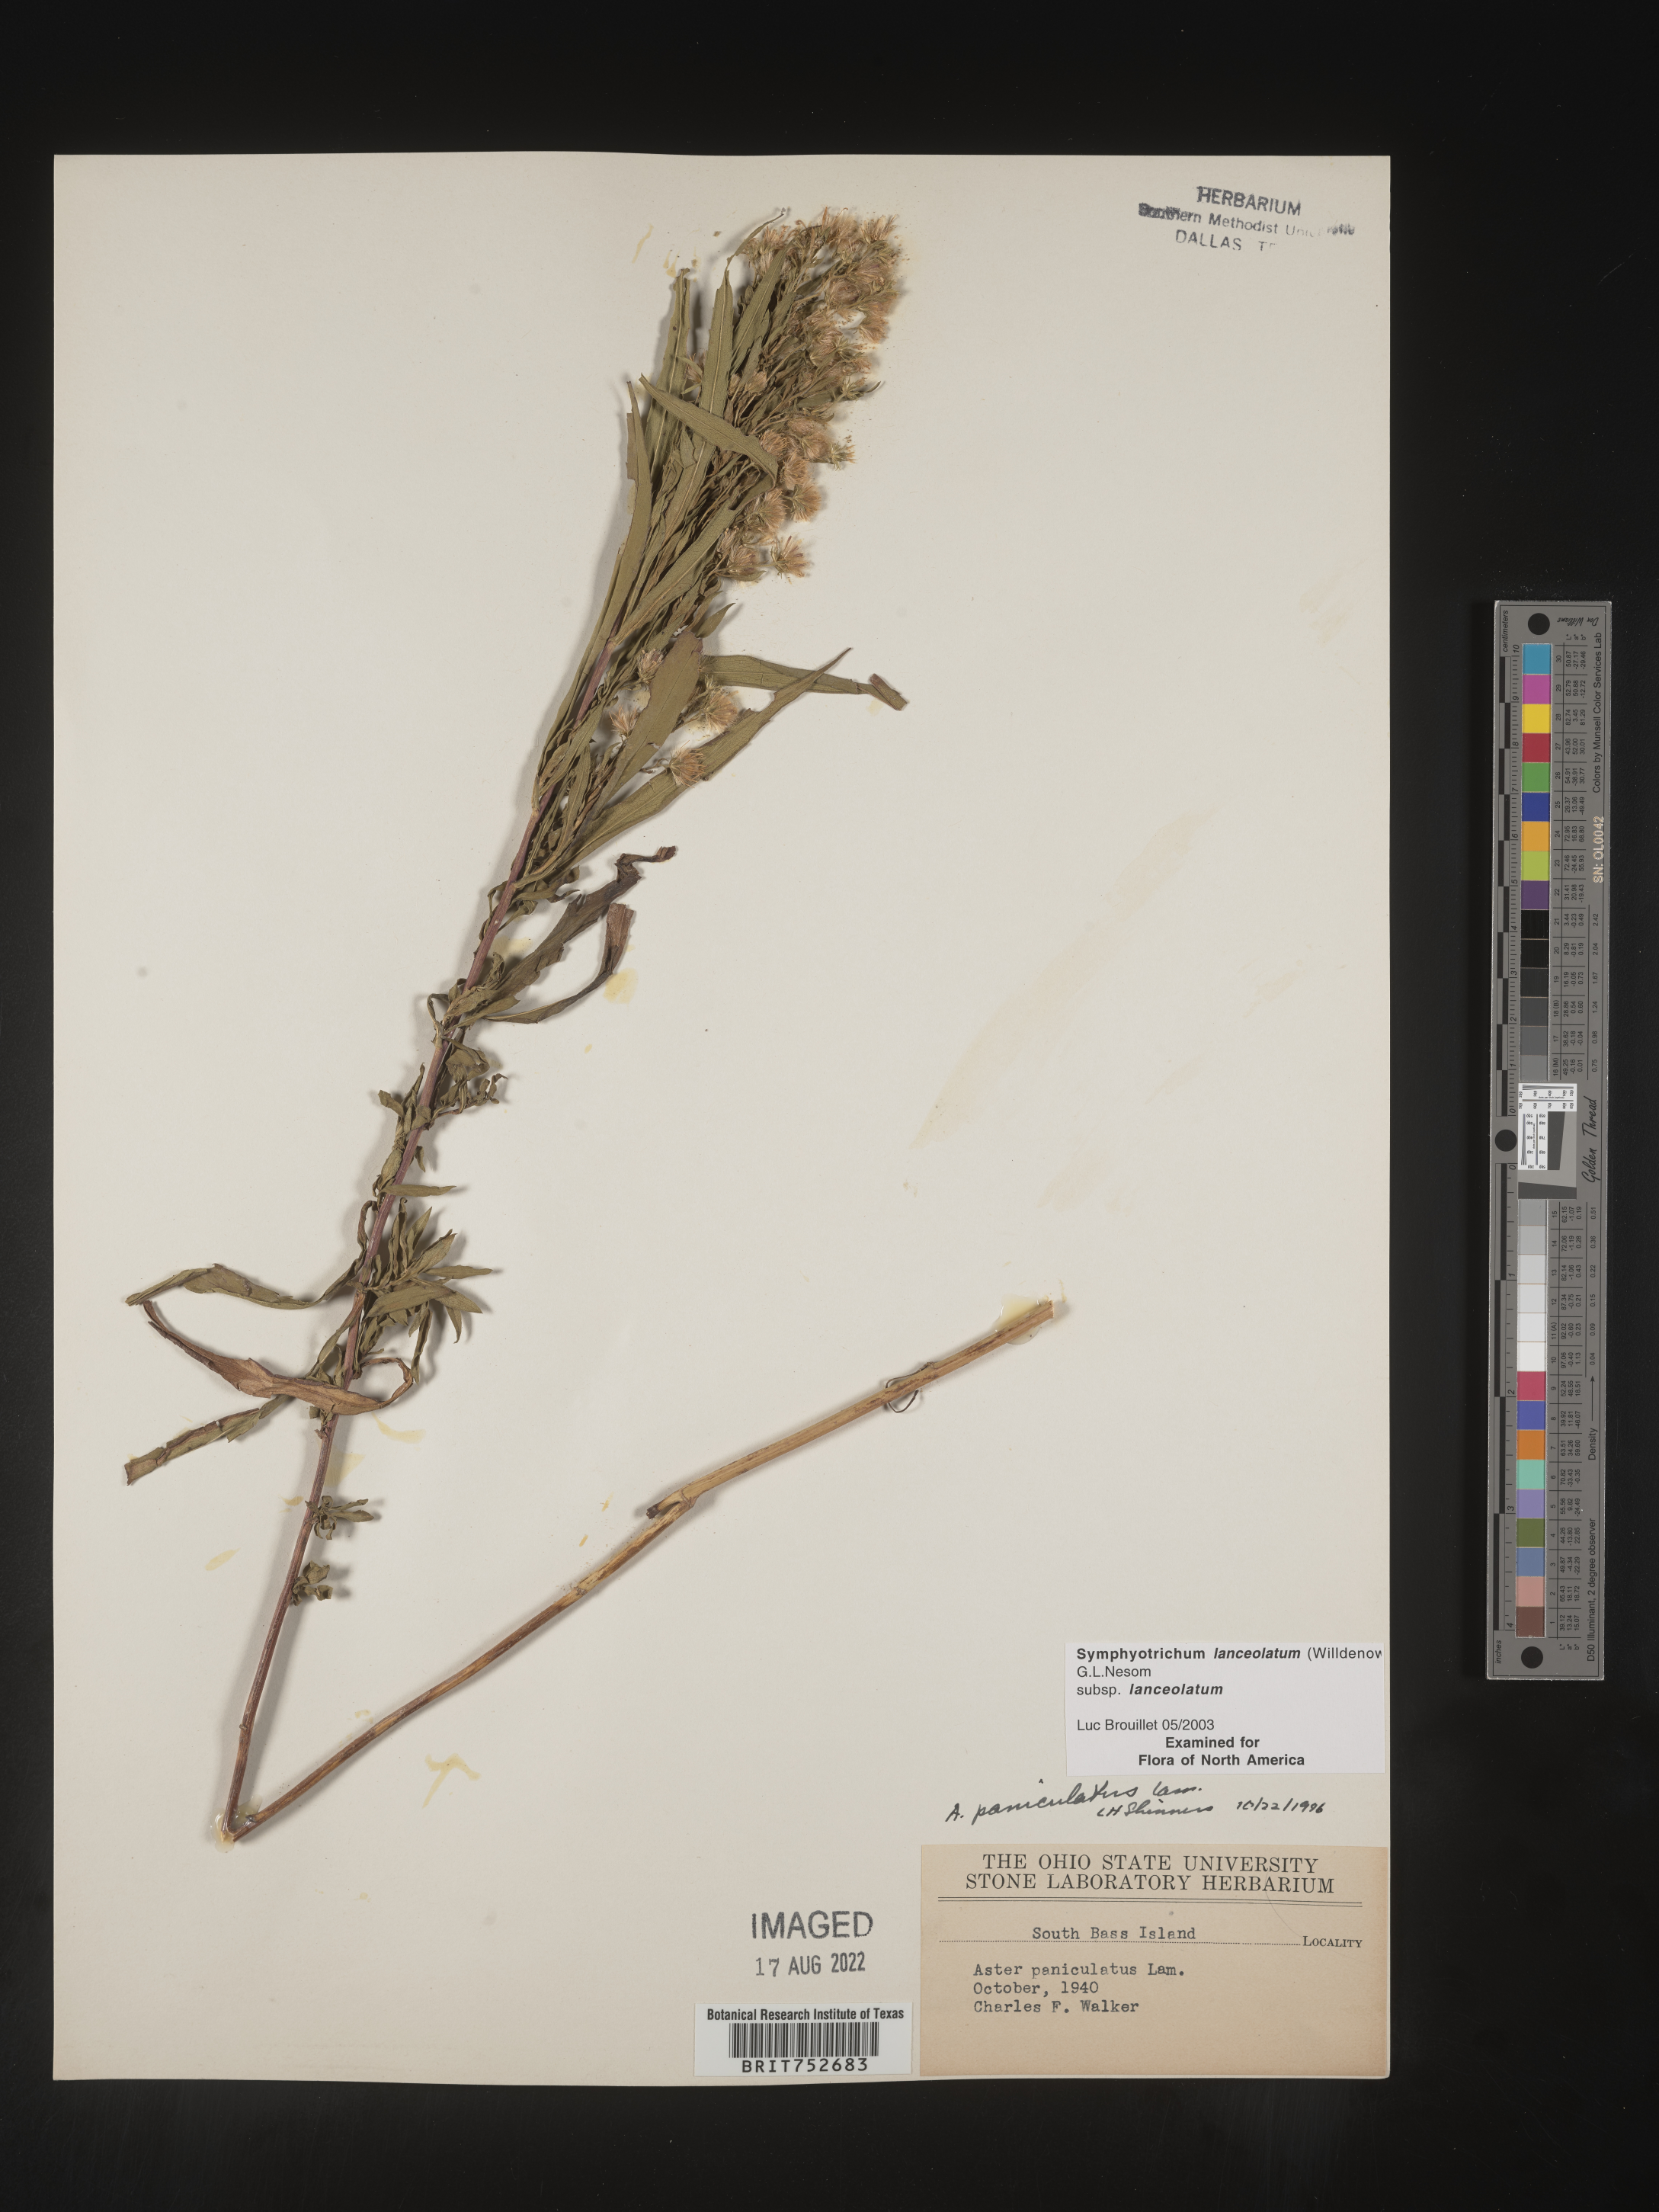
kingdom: Plantae
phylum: Tracheophyta
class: Magnoliopsida
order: Asterales
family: Asteraceae
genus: Symphyotrichum
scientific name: Symphyotrichum lanceolatum
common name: Panicled aster
